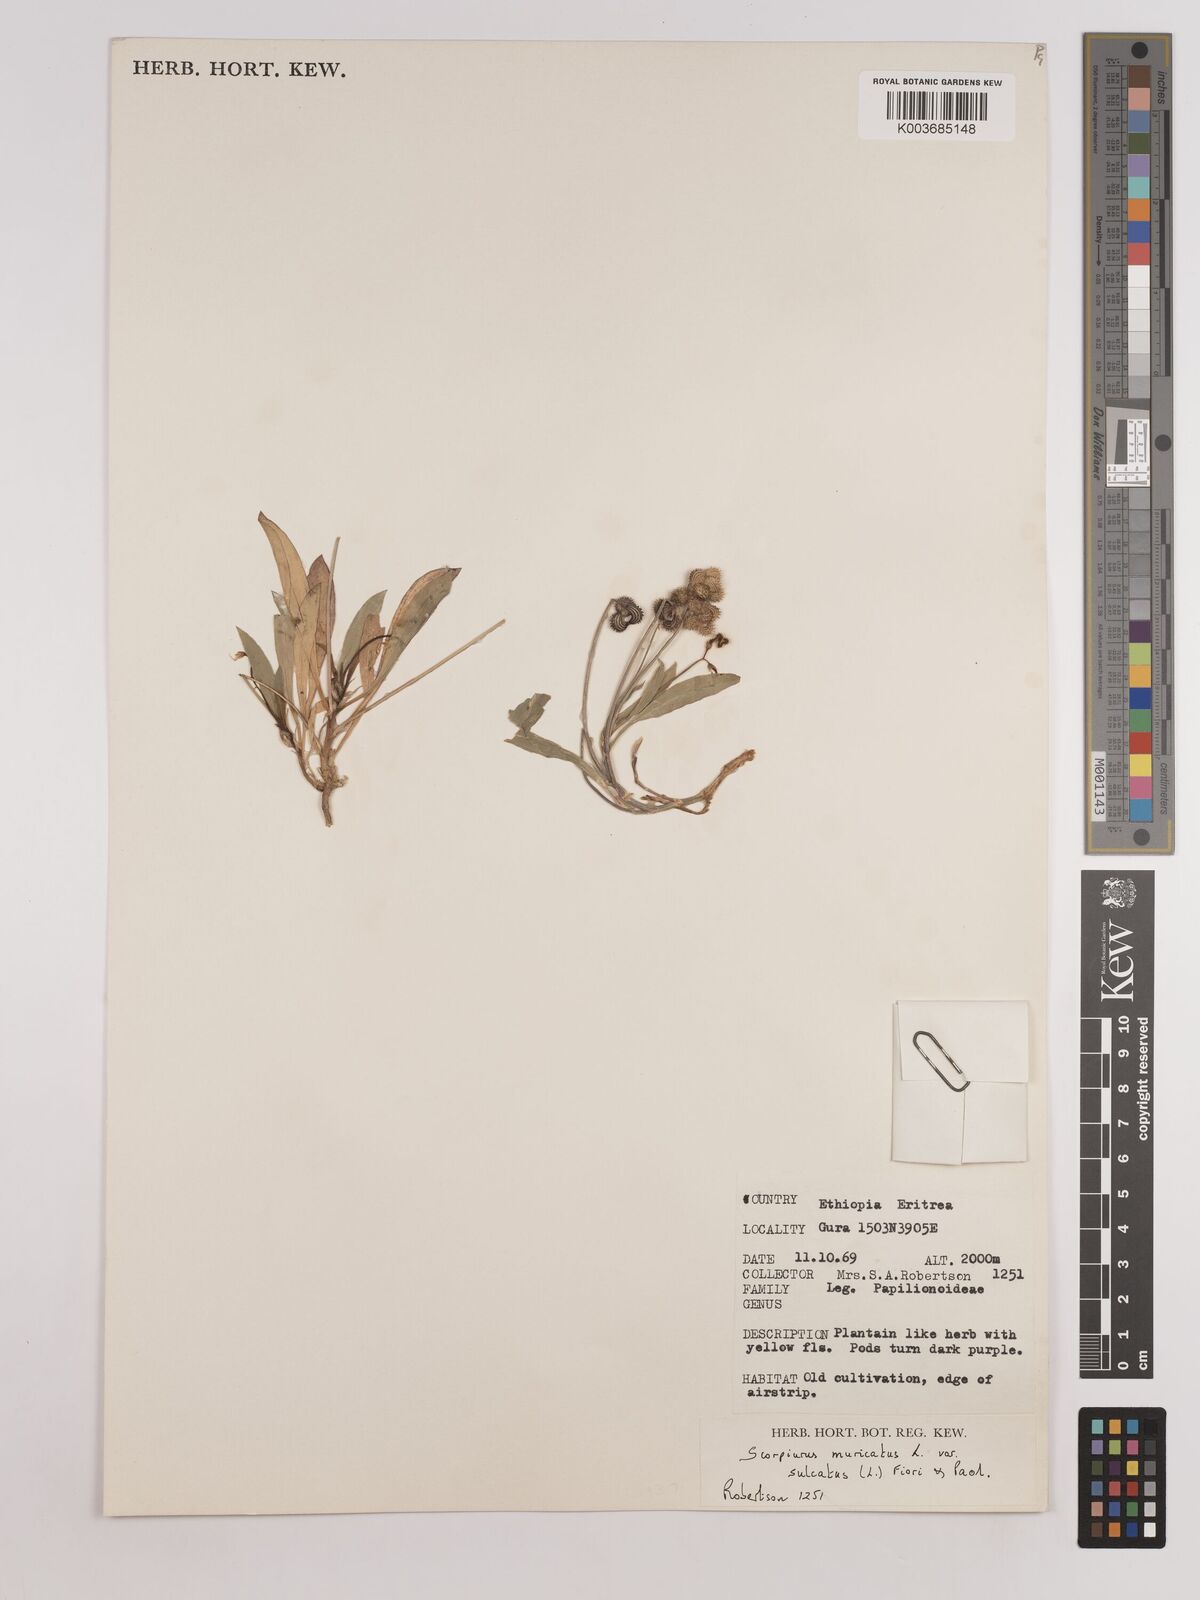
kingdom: Plantae
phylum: Tracheophyta
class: Magnoliopsida
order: Fabales
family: Fabaceae
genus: Scorpiurus
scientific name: Scorpiurus muricatus
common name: Caterpillar-plant
